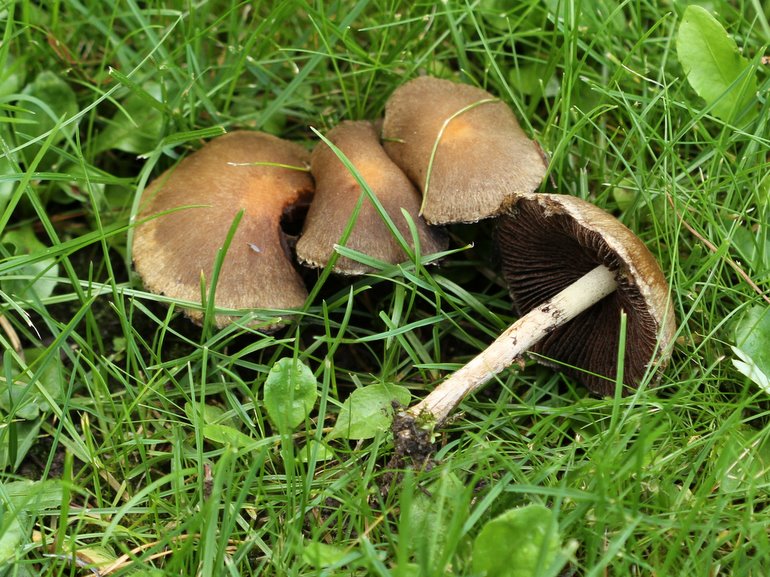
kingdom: Fungi
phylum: Basidiomycota
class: Agaricomycetes
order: Agaricales
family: Psathyrellaceae
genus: Lacrymaria
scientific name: Lacrymaria lacrymabunda
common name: grædende mørkhat
